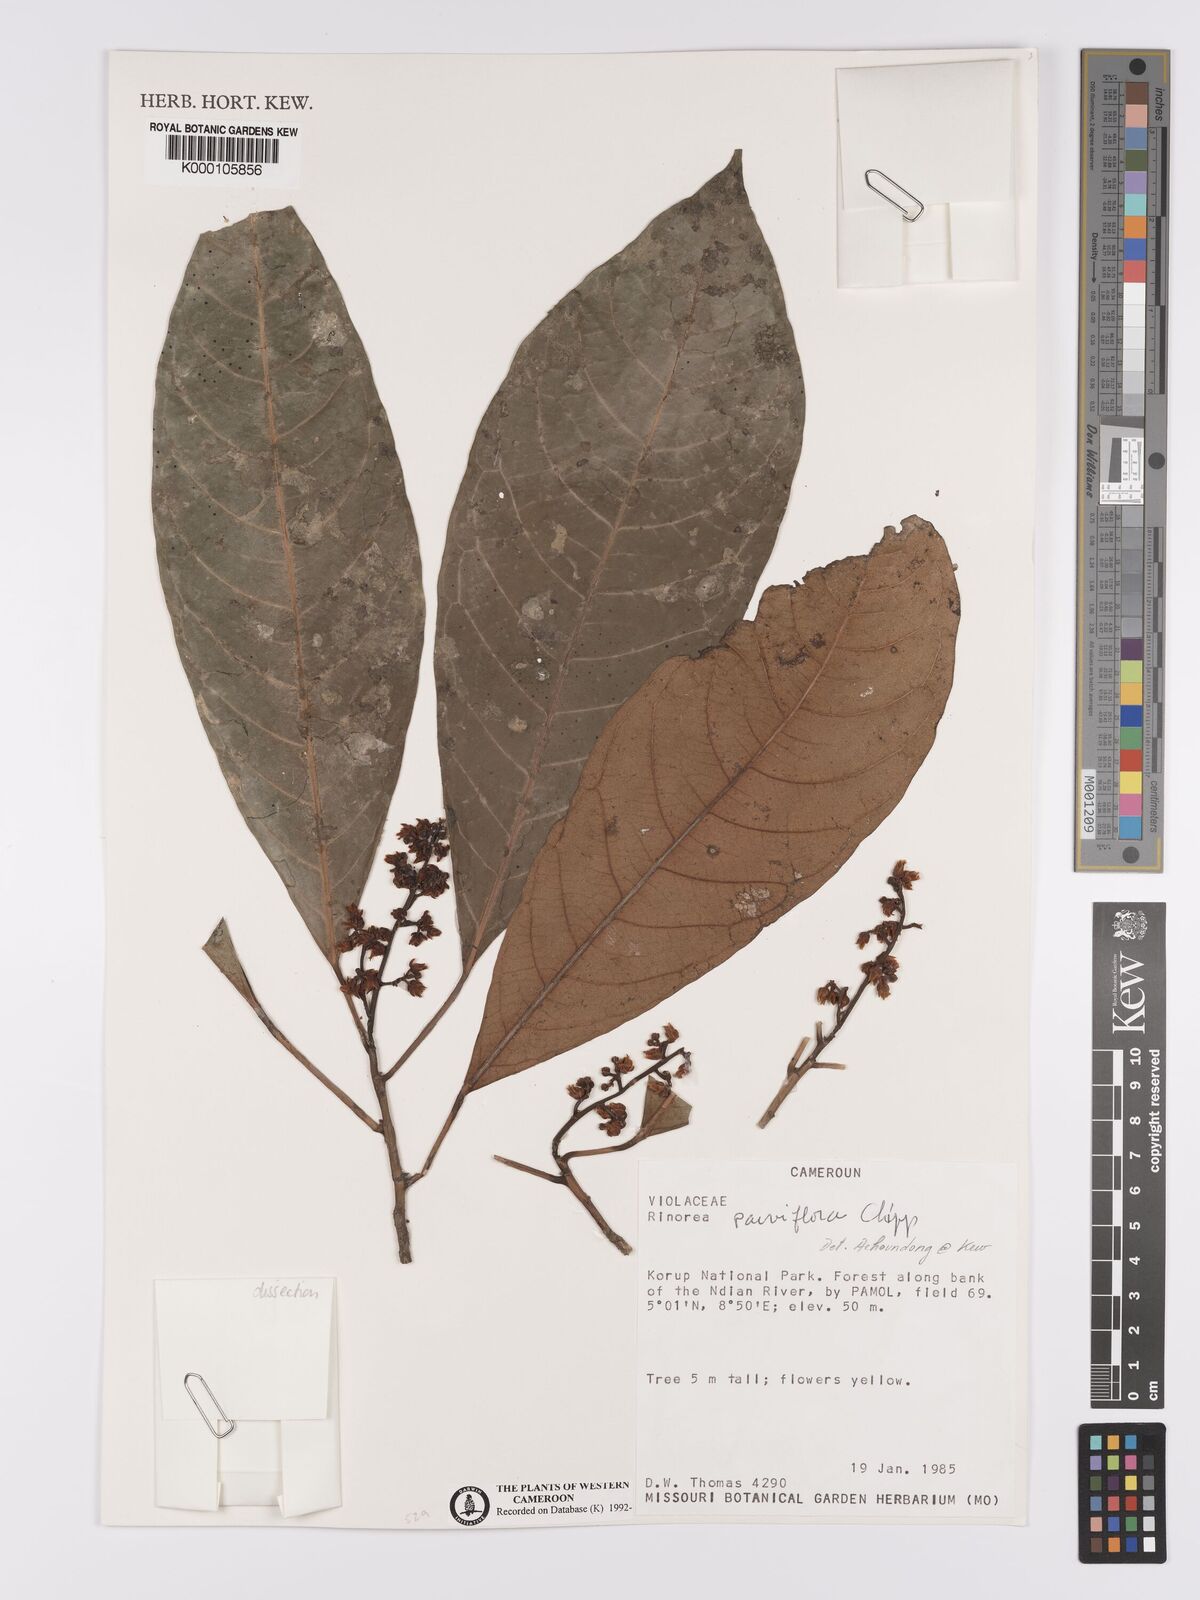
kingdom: Plantae
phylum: Tracheophyta
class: Magnoliopsida
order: Malpighiales
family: Violaceae
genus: Rinorea
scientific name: Rinorea parviflora
